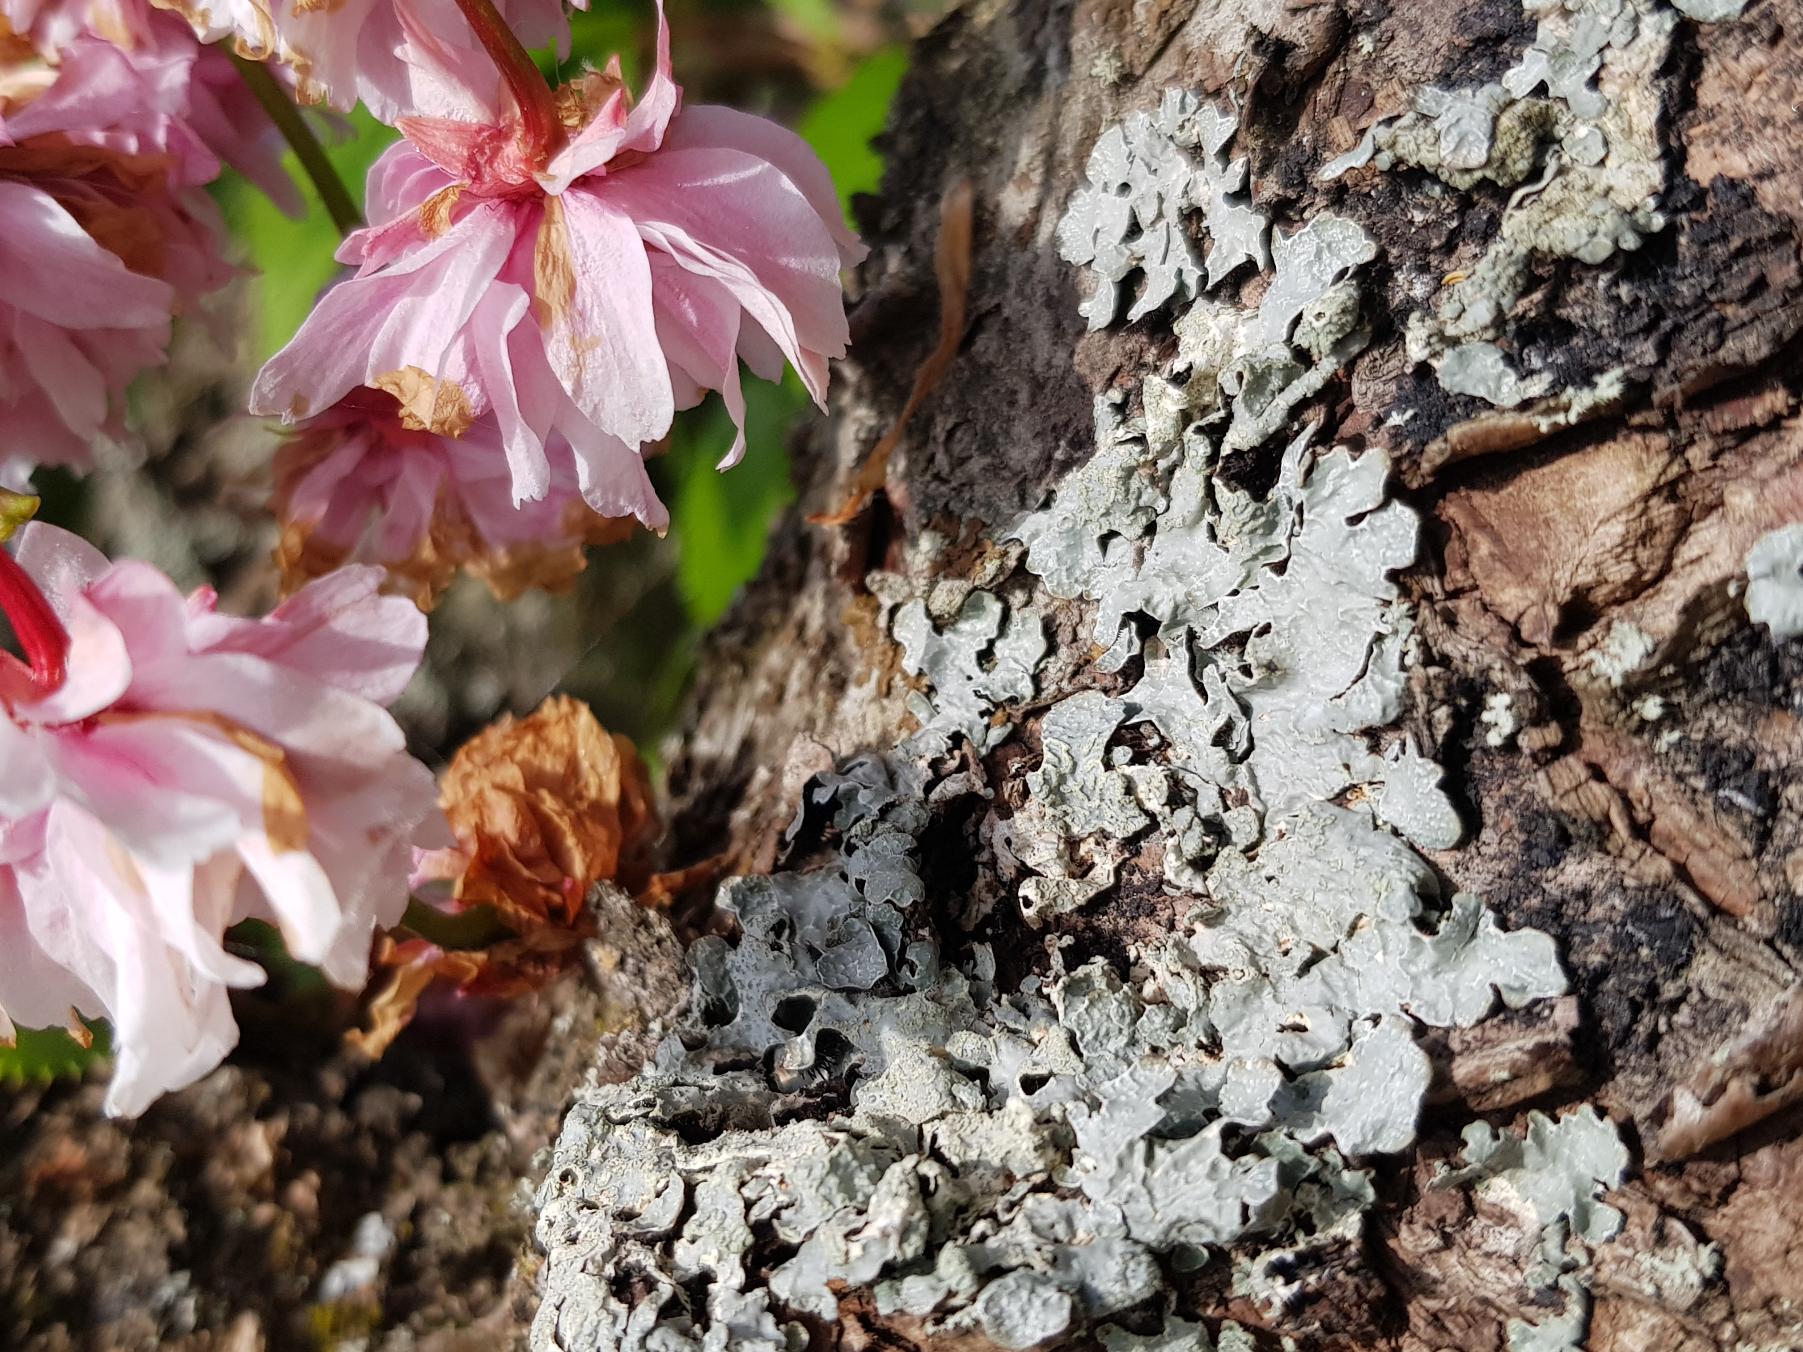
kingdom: Fungi
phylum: Ascomycota
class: Lecanoromycetes
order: Lecanorales
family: Parmeliaceae
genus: Parmelia
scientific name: Parmelia sulcata
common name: Rynket skållav
